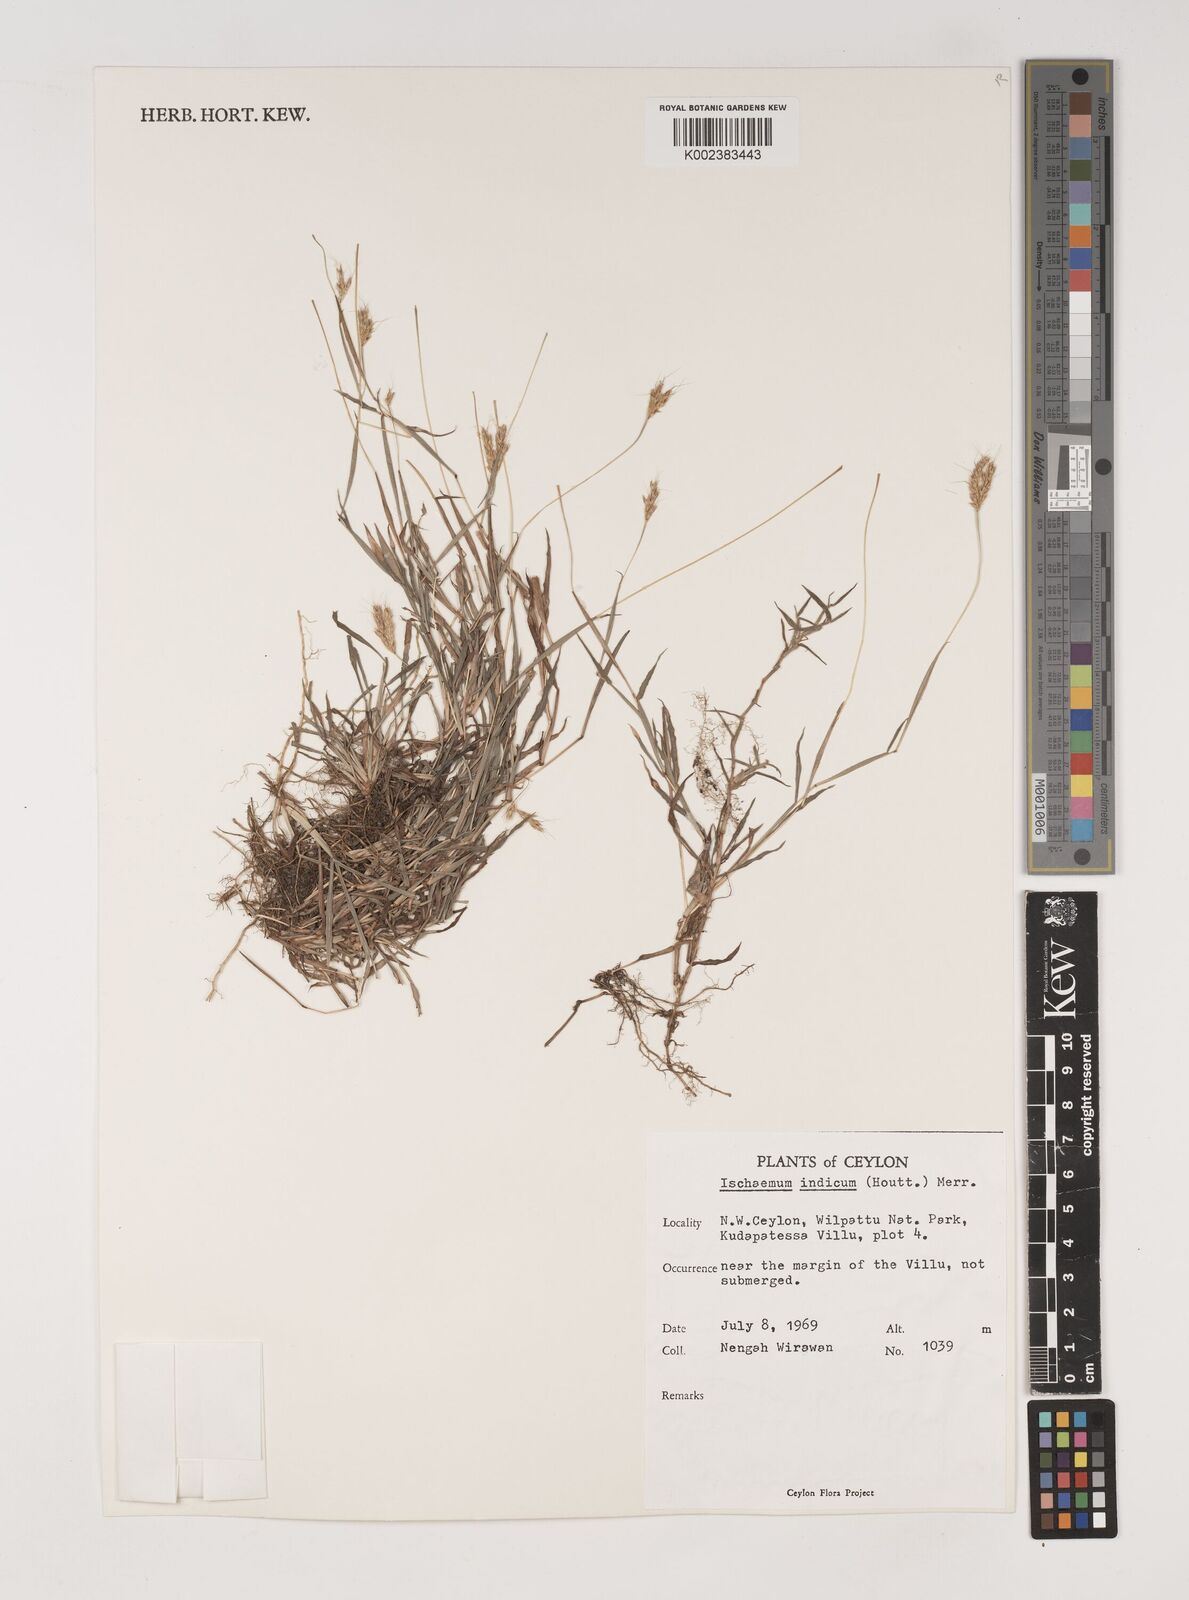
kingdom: Plantae
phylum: Tracheophyta
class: Liliopsida
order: Poales
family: Poaceae
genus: Polytrias
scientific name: Polytrias indica
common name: Indian murainagrass
